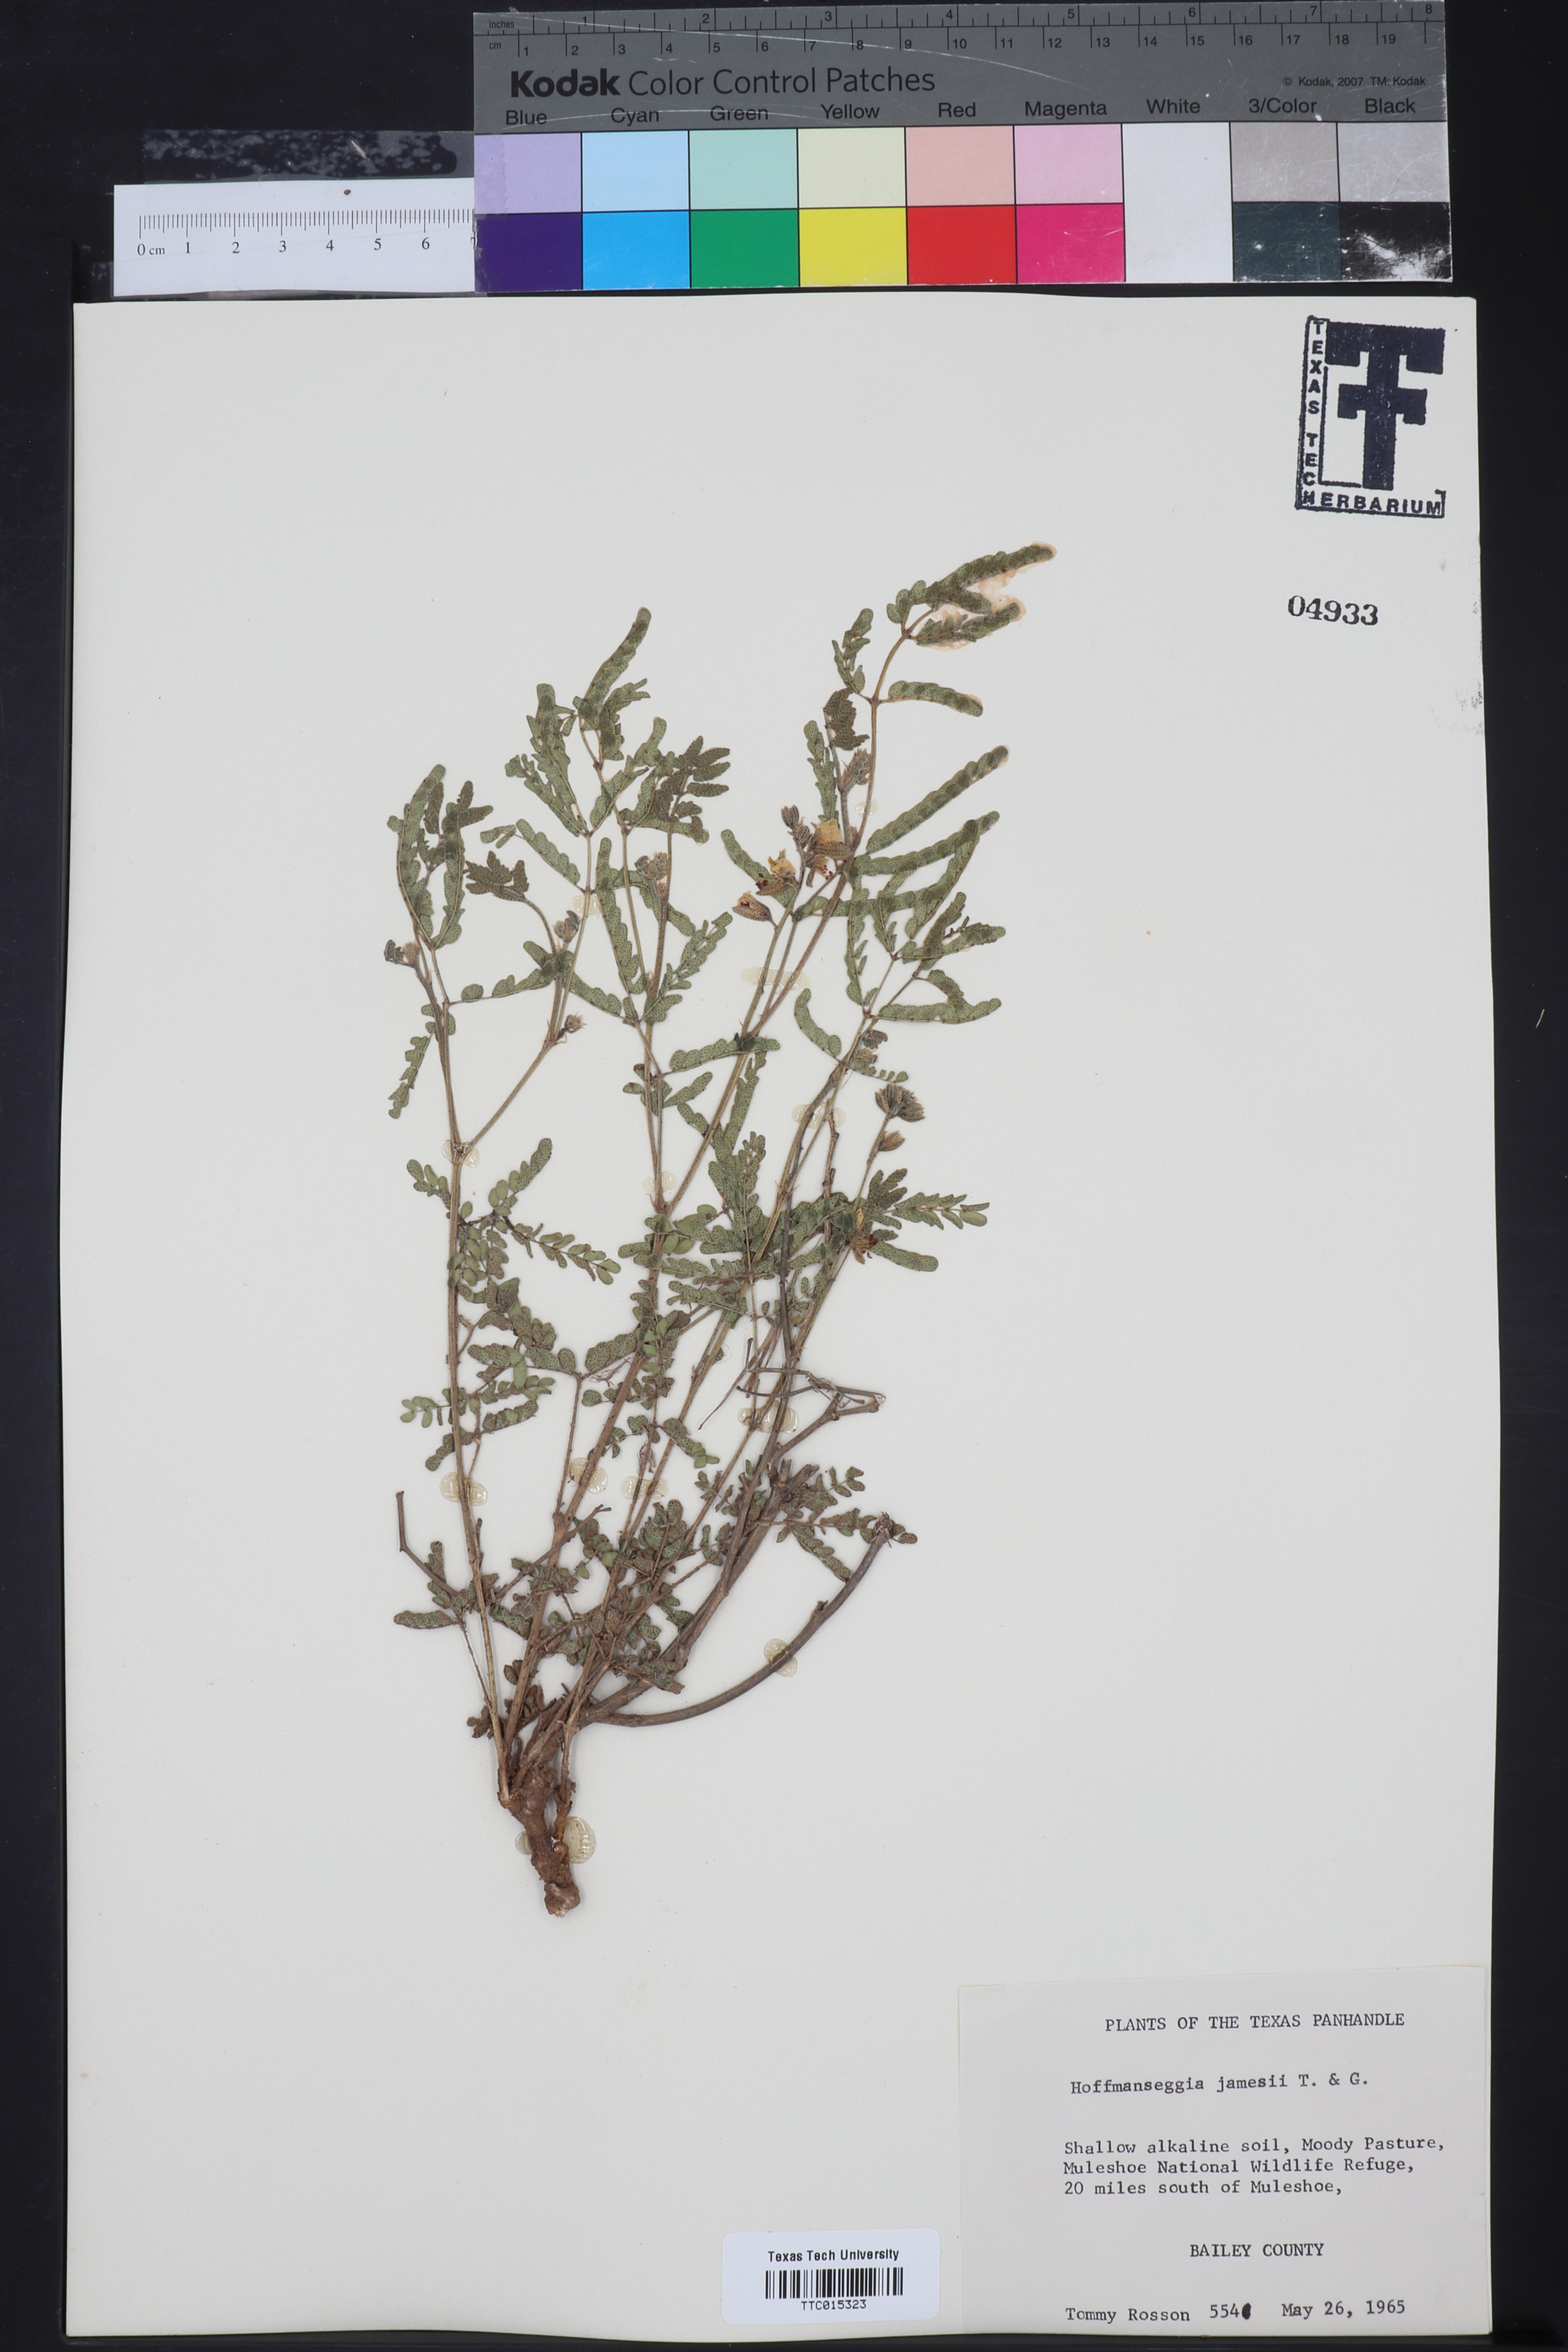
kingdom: Plantae
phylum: Tracheophyta
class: Magnoliopsida
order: Fabales
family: Fabaceae
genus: Pomaria
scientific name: Pomaria jamesii
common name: James' caesalpinia
